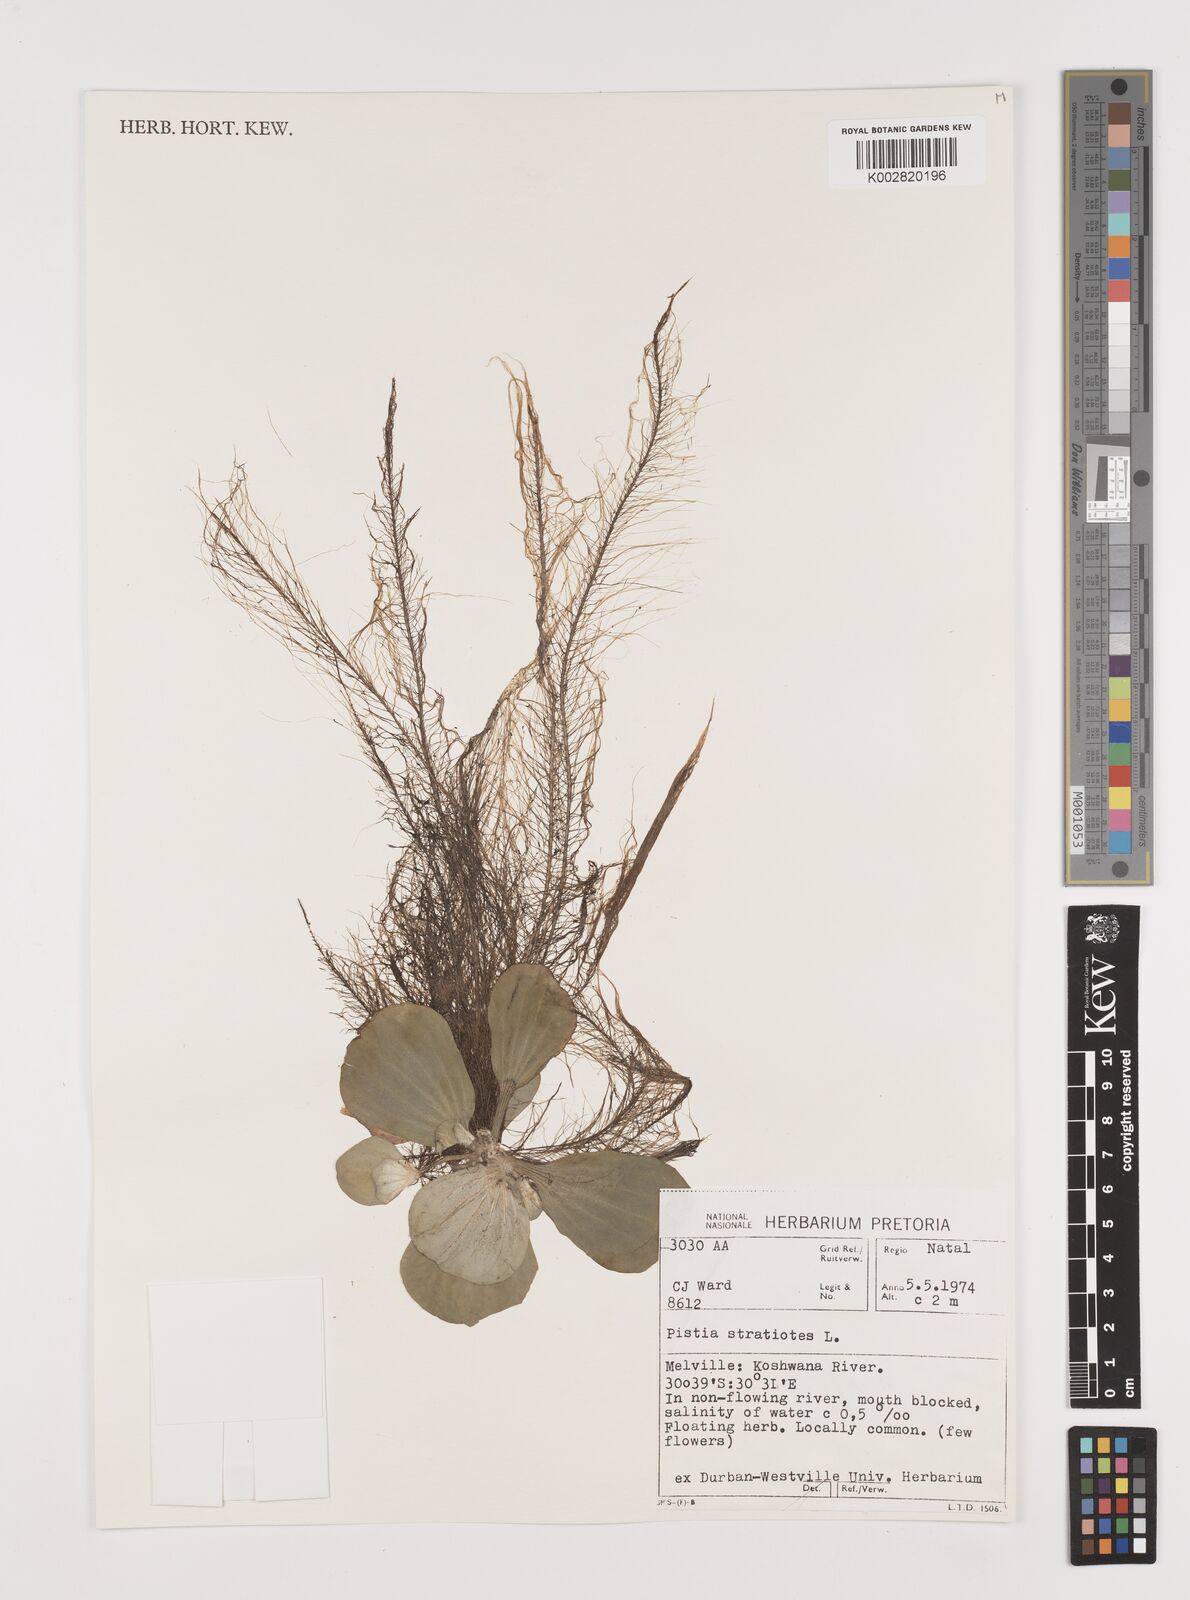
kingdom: Plantae
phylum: Tracheophyta
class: Liliopsida
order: Alismatales
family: Araceae
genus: Pistia
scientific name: Pistia stratiotes
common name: Water lettuce
